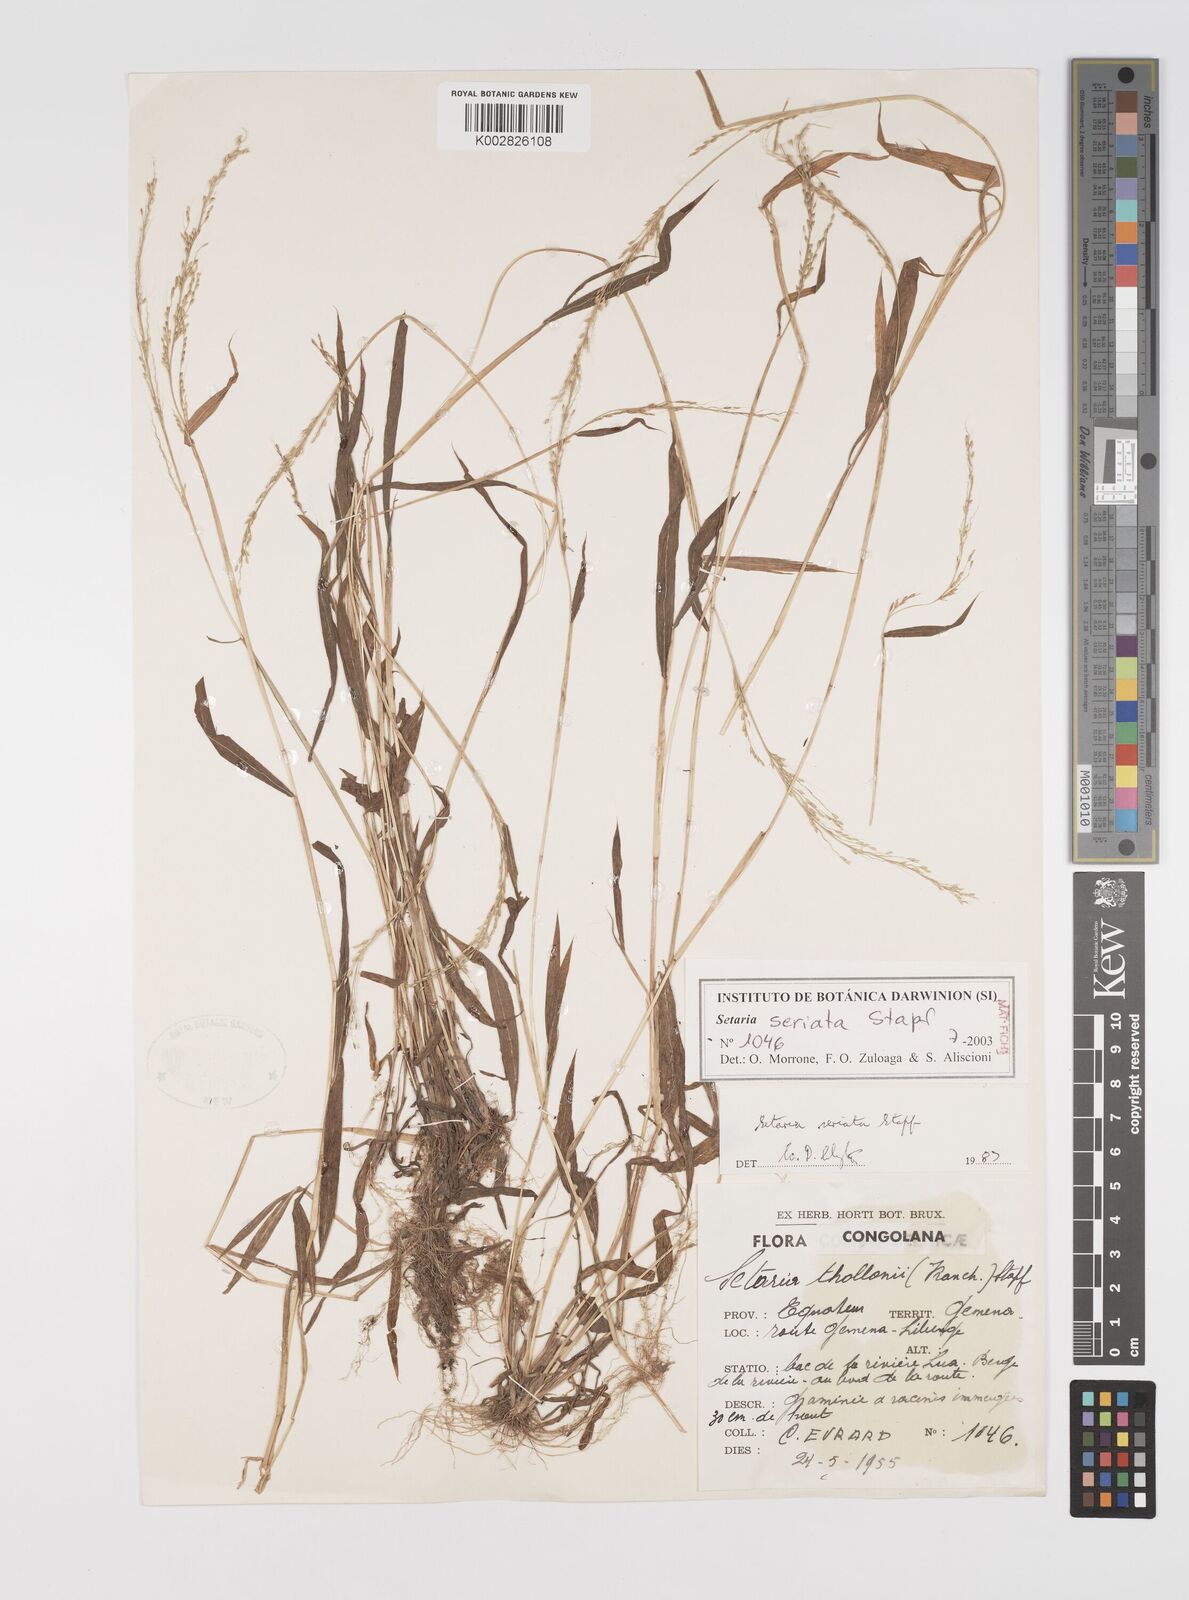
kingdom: Plantae
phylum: Tracheophyta
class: Liliopsida
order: Poales
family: Poaceae
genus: Setaria
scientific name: Setaria kagerensis
